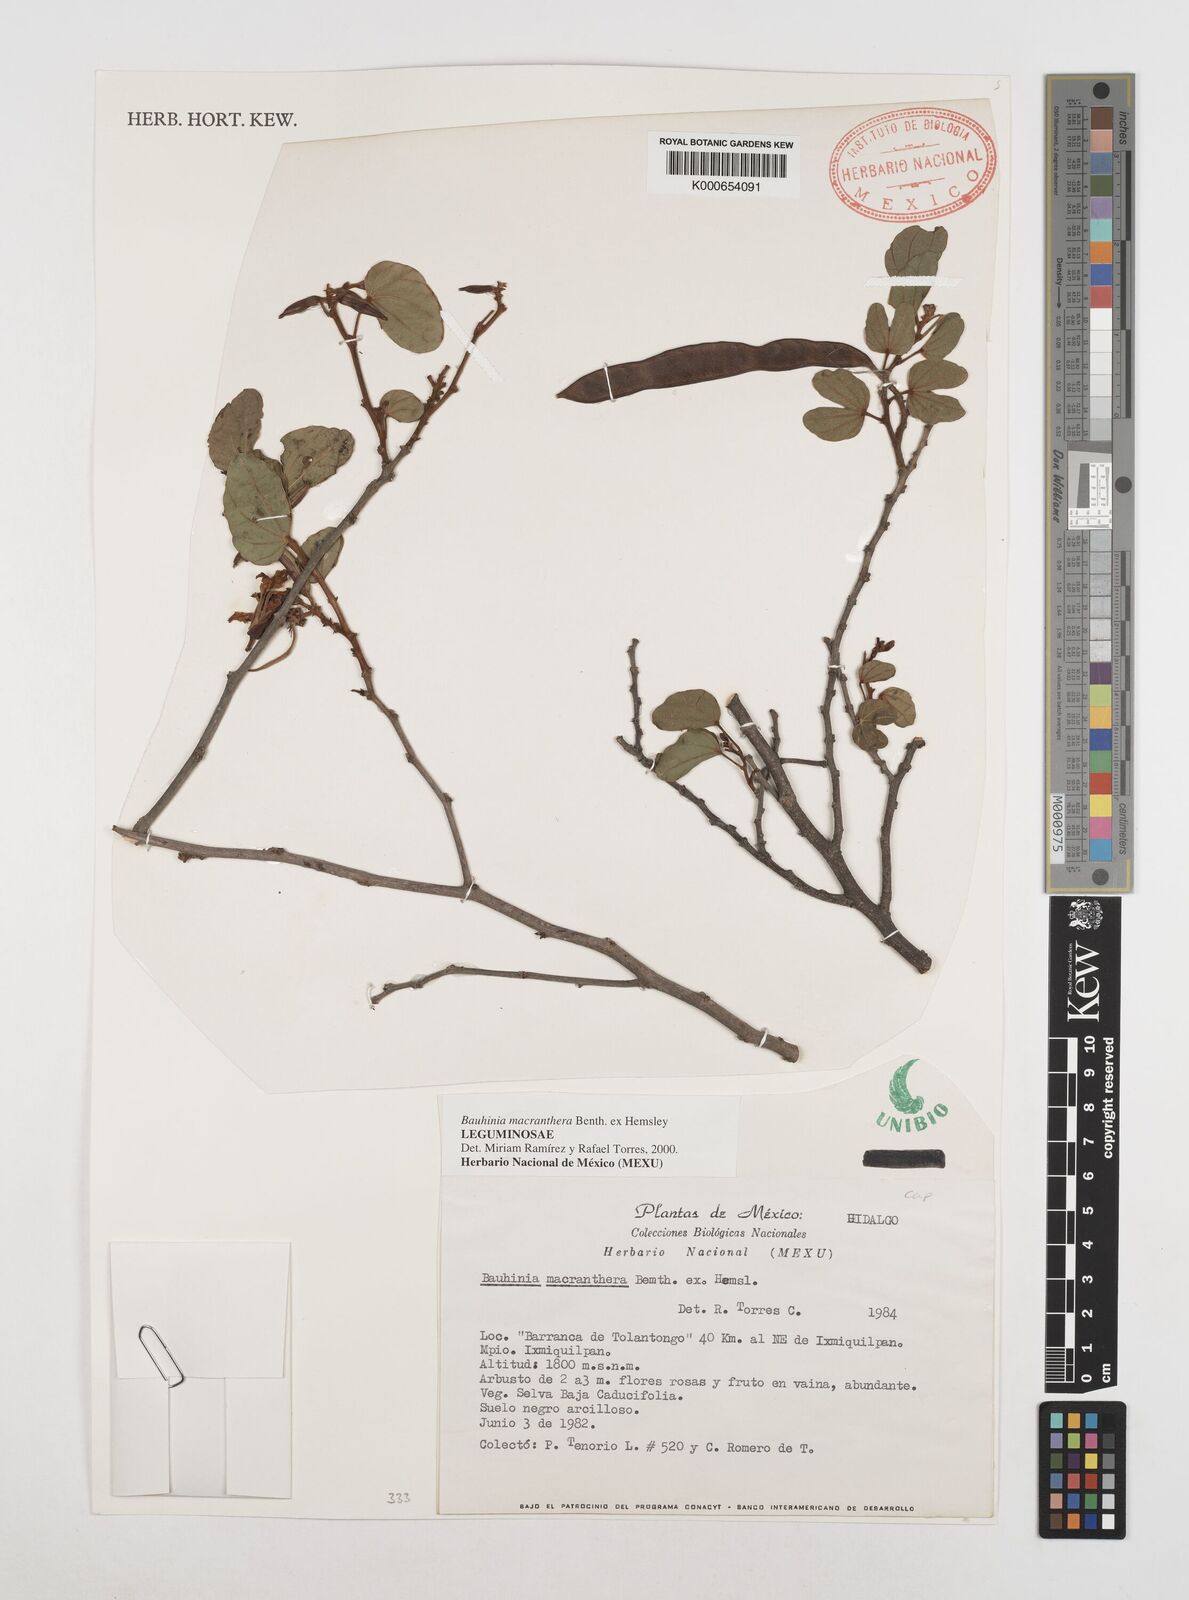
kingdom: Plantae
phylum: Tracheophyta
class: Magnoliopsida
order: Fabales
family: Fabaceae
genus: Bauhinia
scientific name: Bauhinia macranthera
